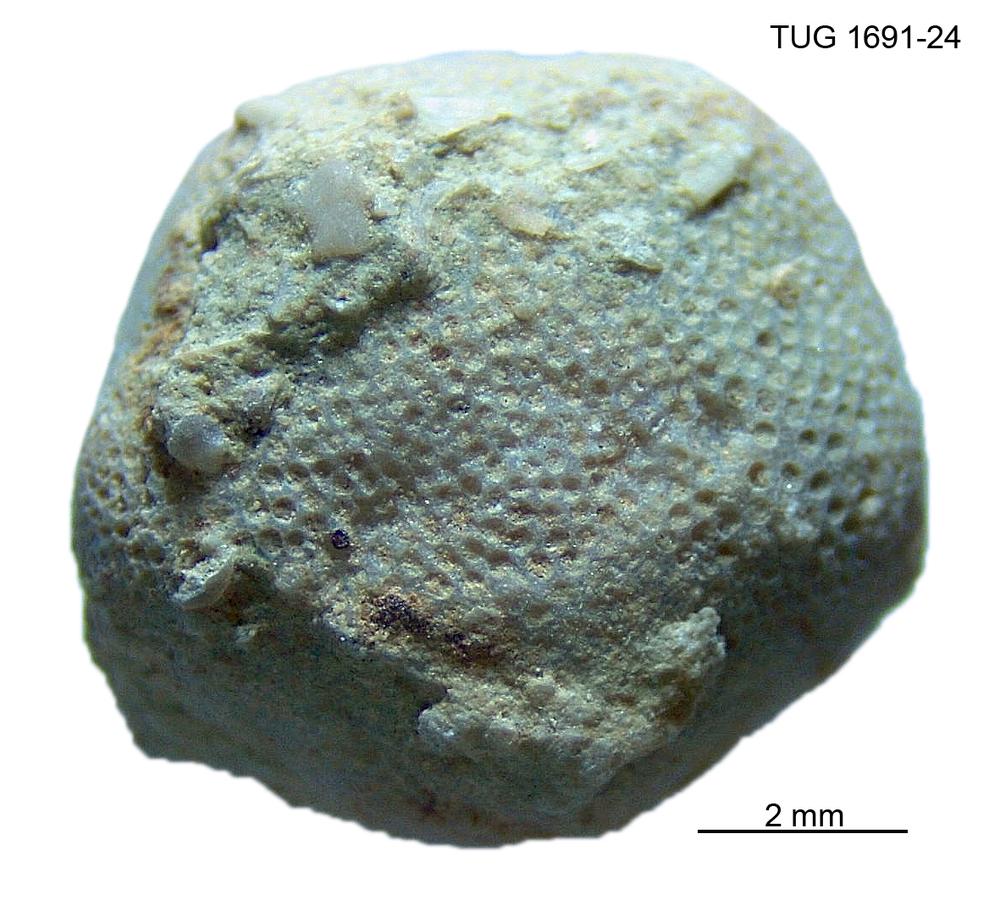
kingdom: Animalia
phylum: Bryozoa
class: Stenolaemata
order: Cryptostomida
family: Stictoporellidae
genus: Stictoporellina
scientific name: Stictoporellina
